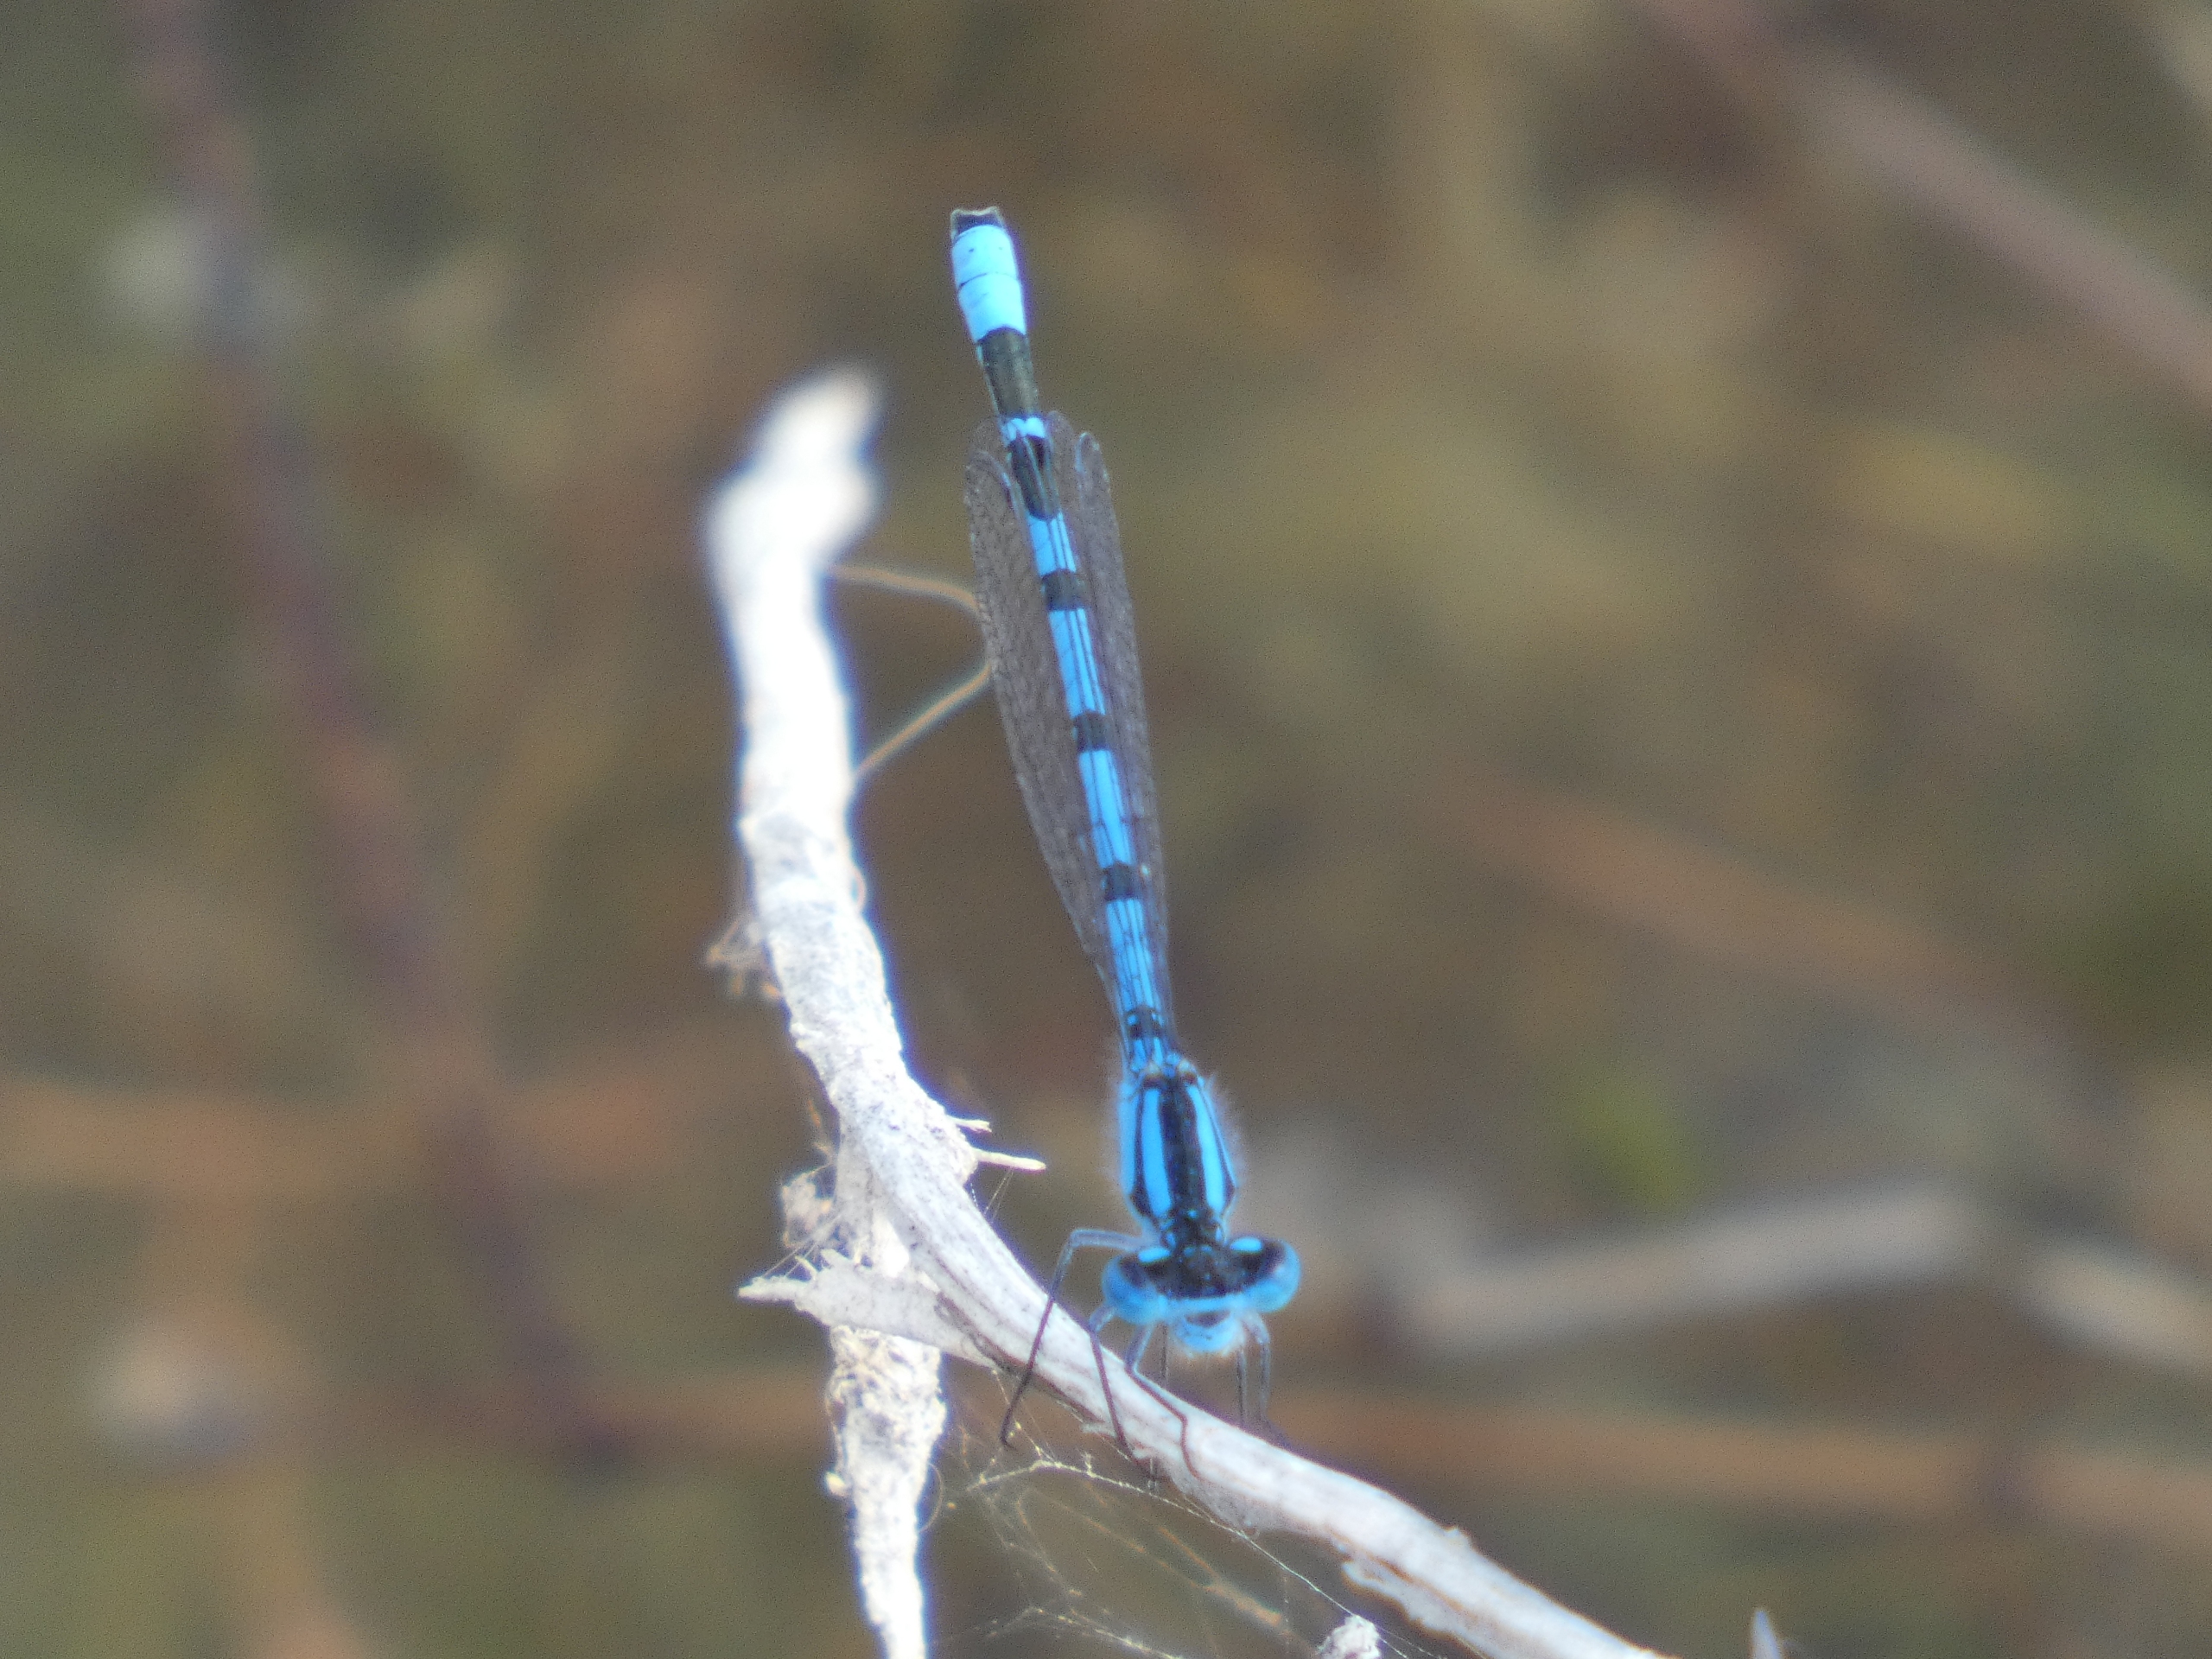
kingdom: Animalia
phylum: Arthropoda
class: Insecta
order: Odonata
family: Coenagrionidae
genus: Enallagma
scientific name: Enallagma cyathigerum
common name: Almindelig vandnymfe
